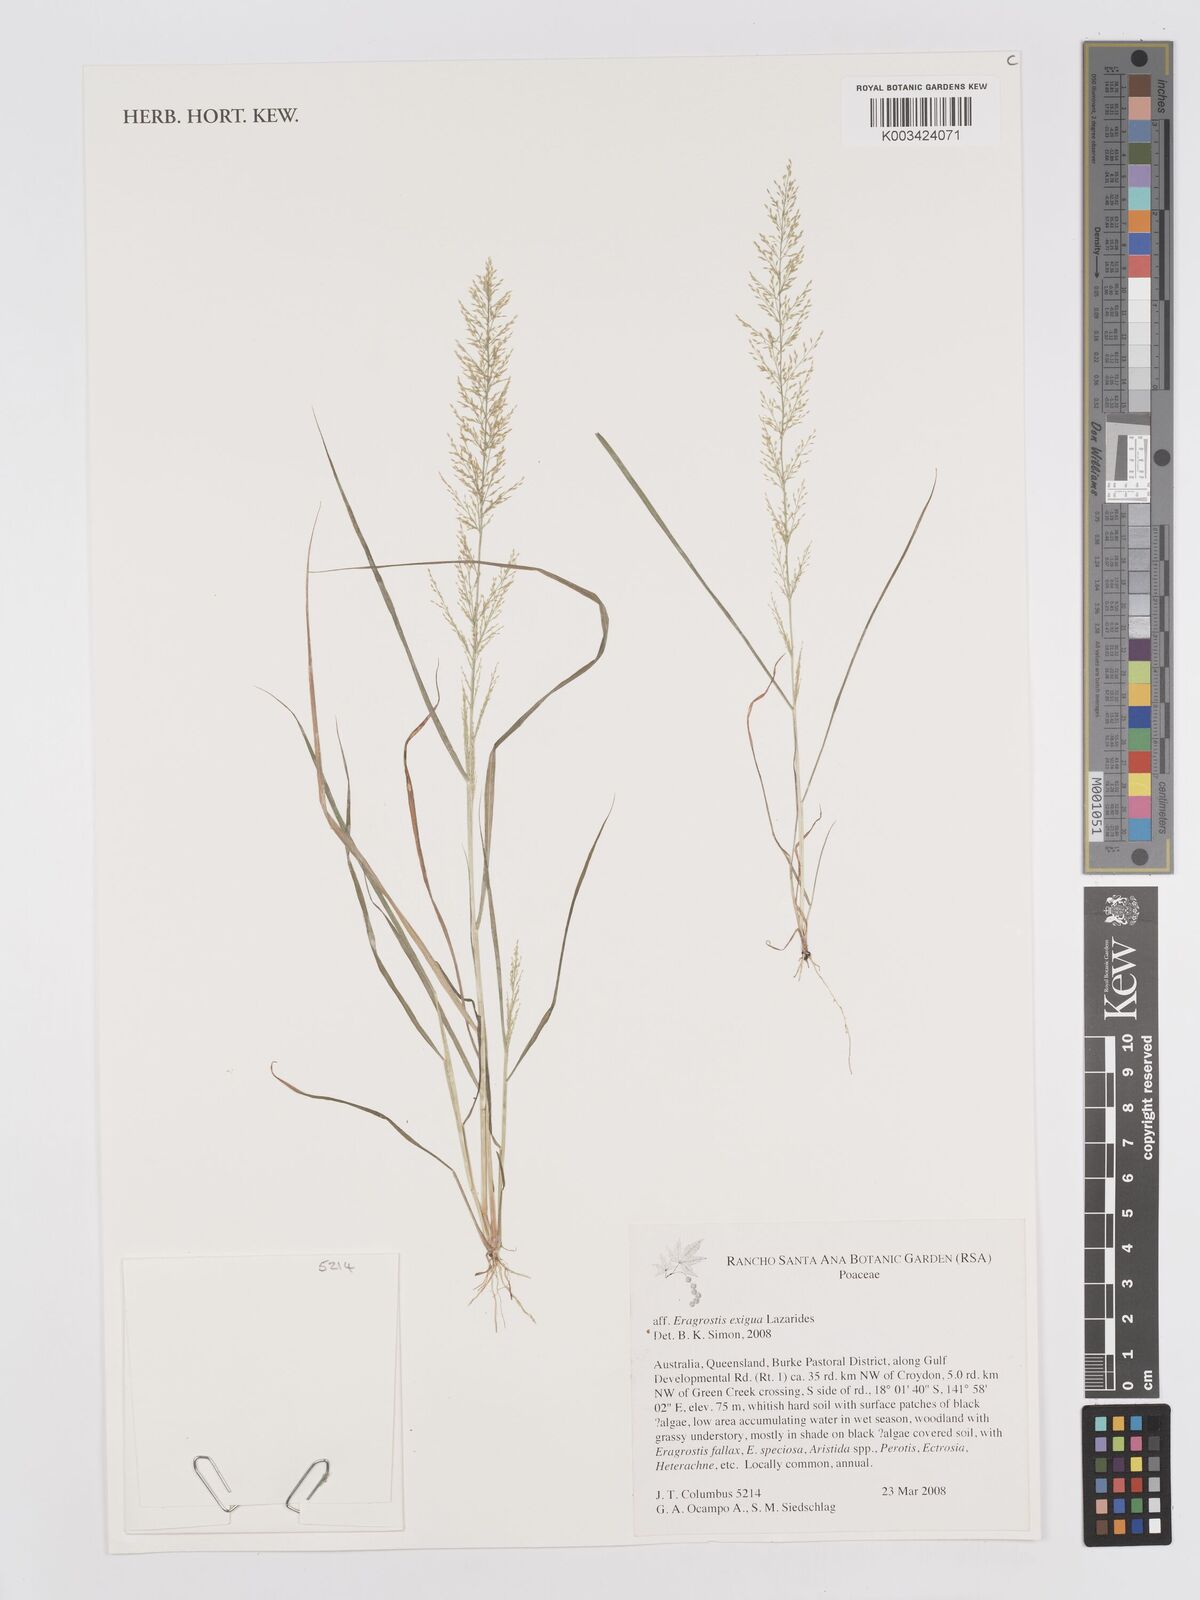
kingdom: Plantae
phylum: Tracheophyta
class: Liliopsida
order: Poales
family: Poaceae
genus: Eragrostis
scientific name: Eragrostis exigua
